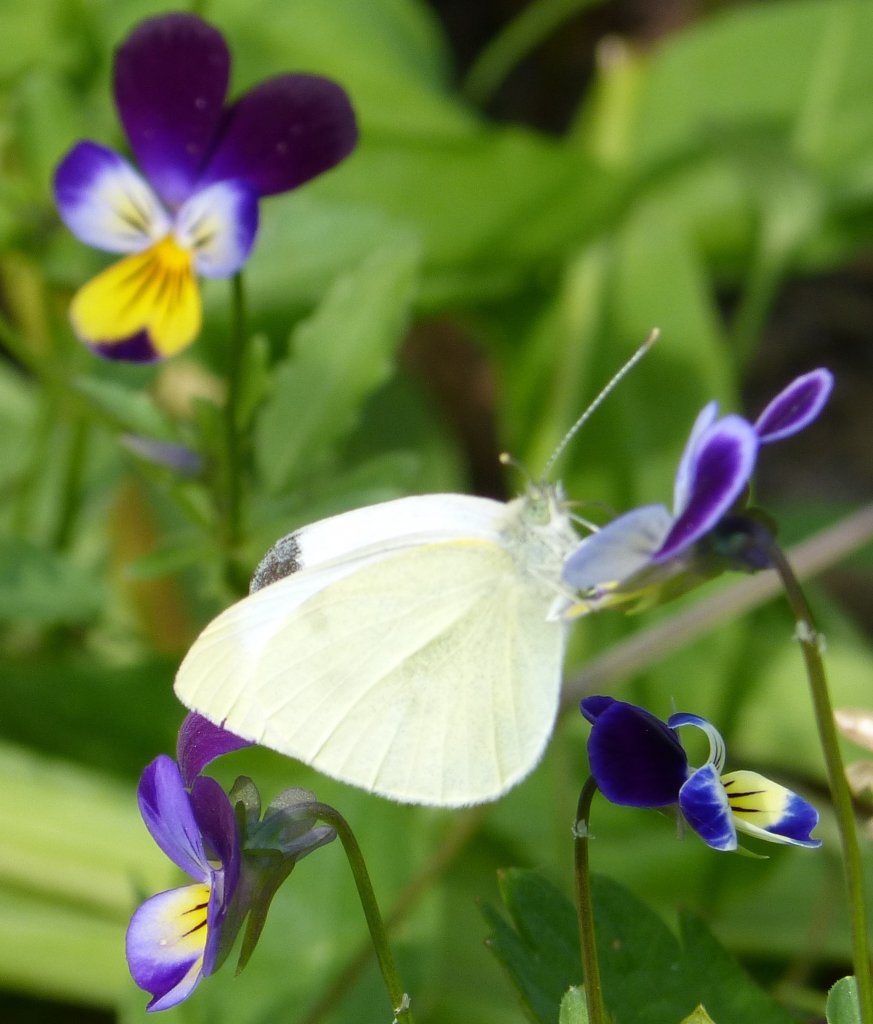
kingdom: Animalia
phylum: Arthropoda
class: Insecta
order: Lepidoptera
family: Pieridae
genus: Pieris
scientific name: Pieris rapae
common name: Cabbage White
